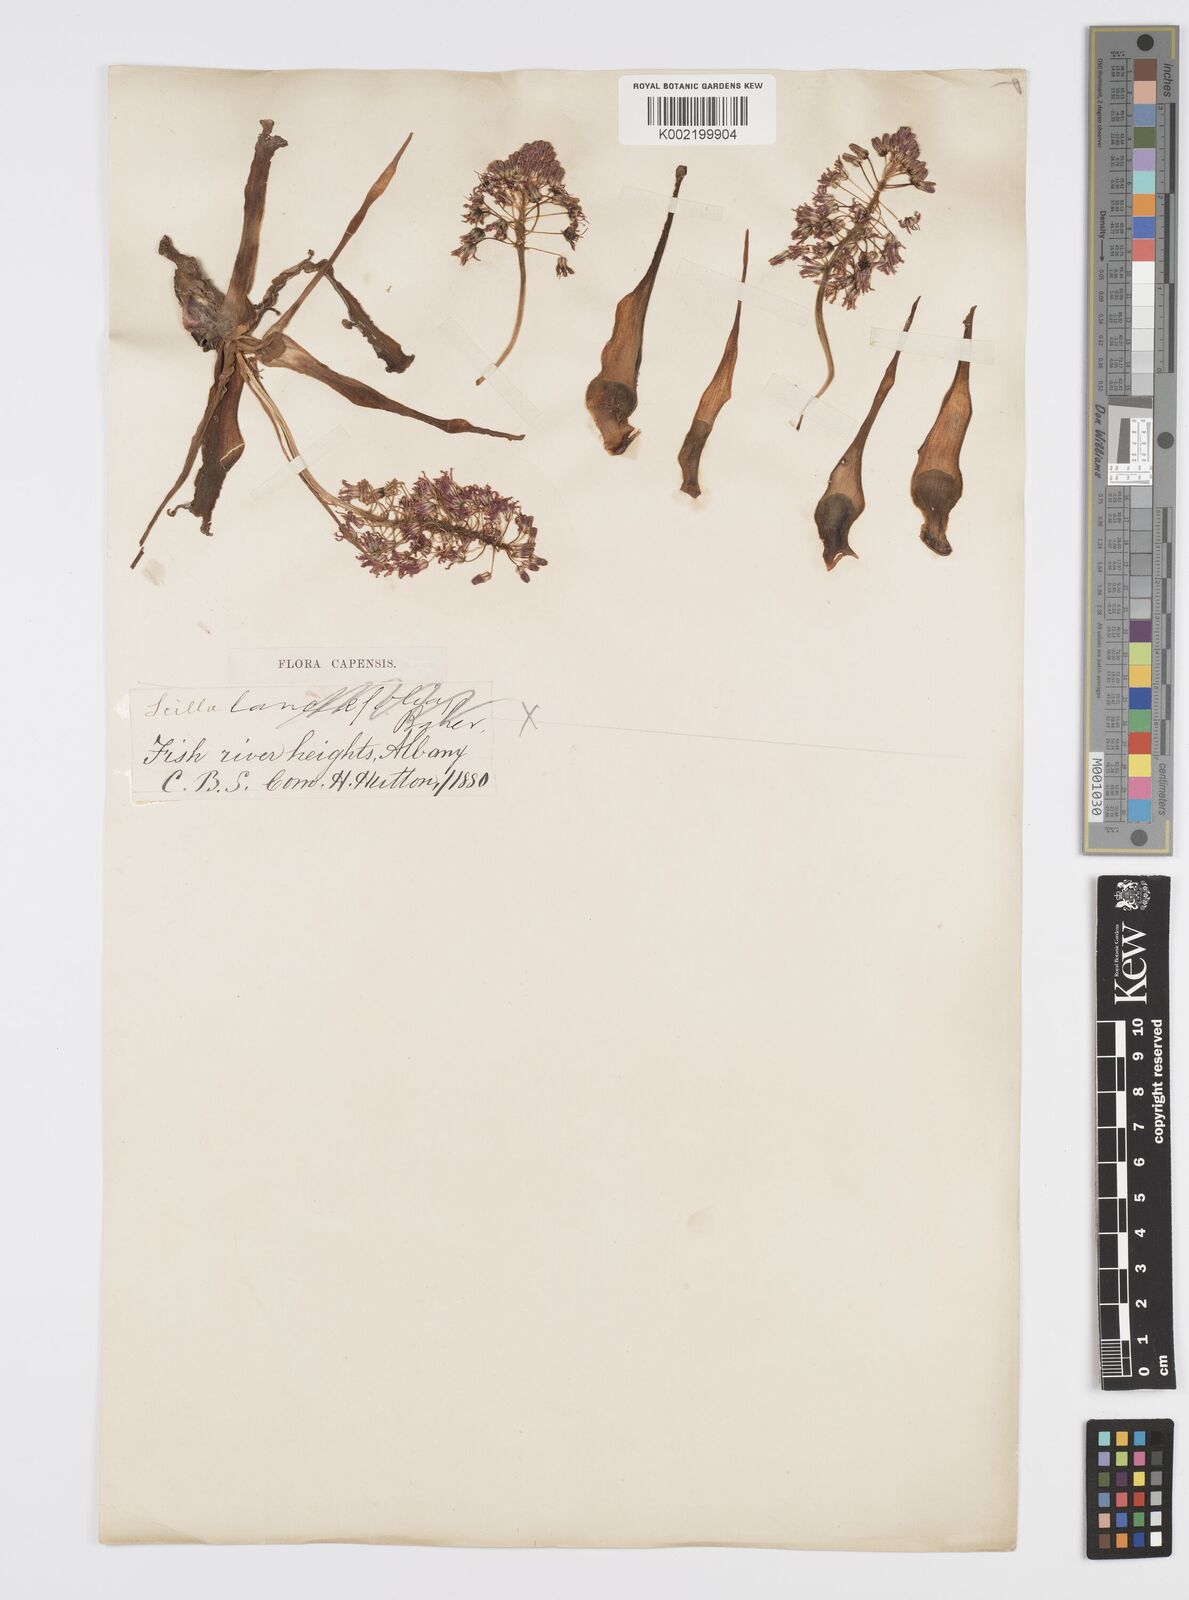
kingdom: Plantae
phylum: Tracheophyta
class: Liliopsida
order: Asparagales
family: Asparagaceae
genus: Ledebouria
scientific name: Ledebouria revoluta
